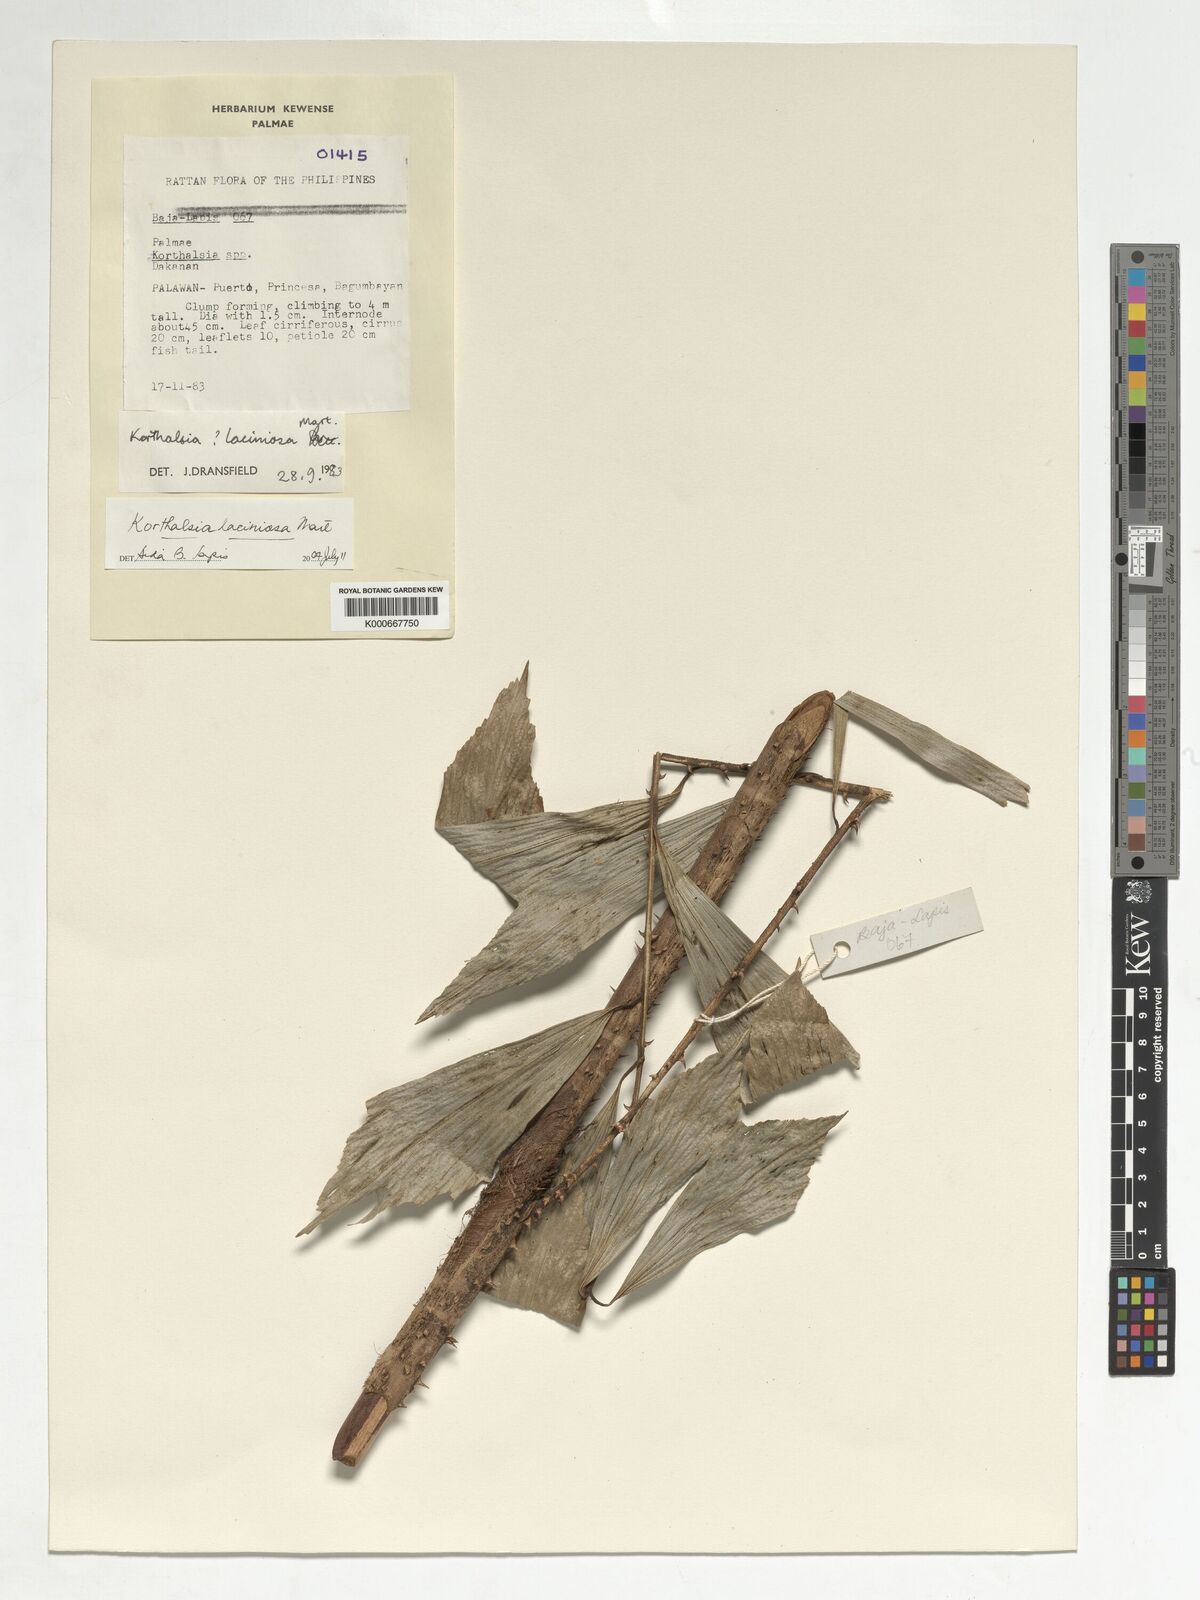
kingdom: Plantae
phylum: Tracheophyta
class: Liliopsida
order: Arecales
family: Arecaceae
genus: Korthalsia
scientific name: Korthalsia laciniosa
